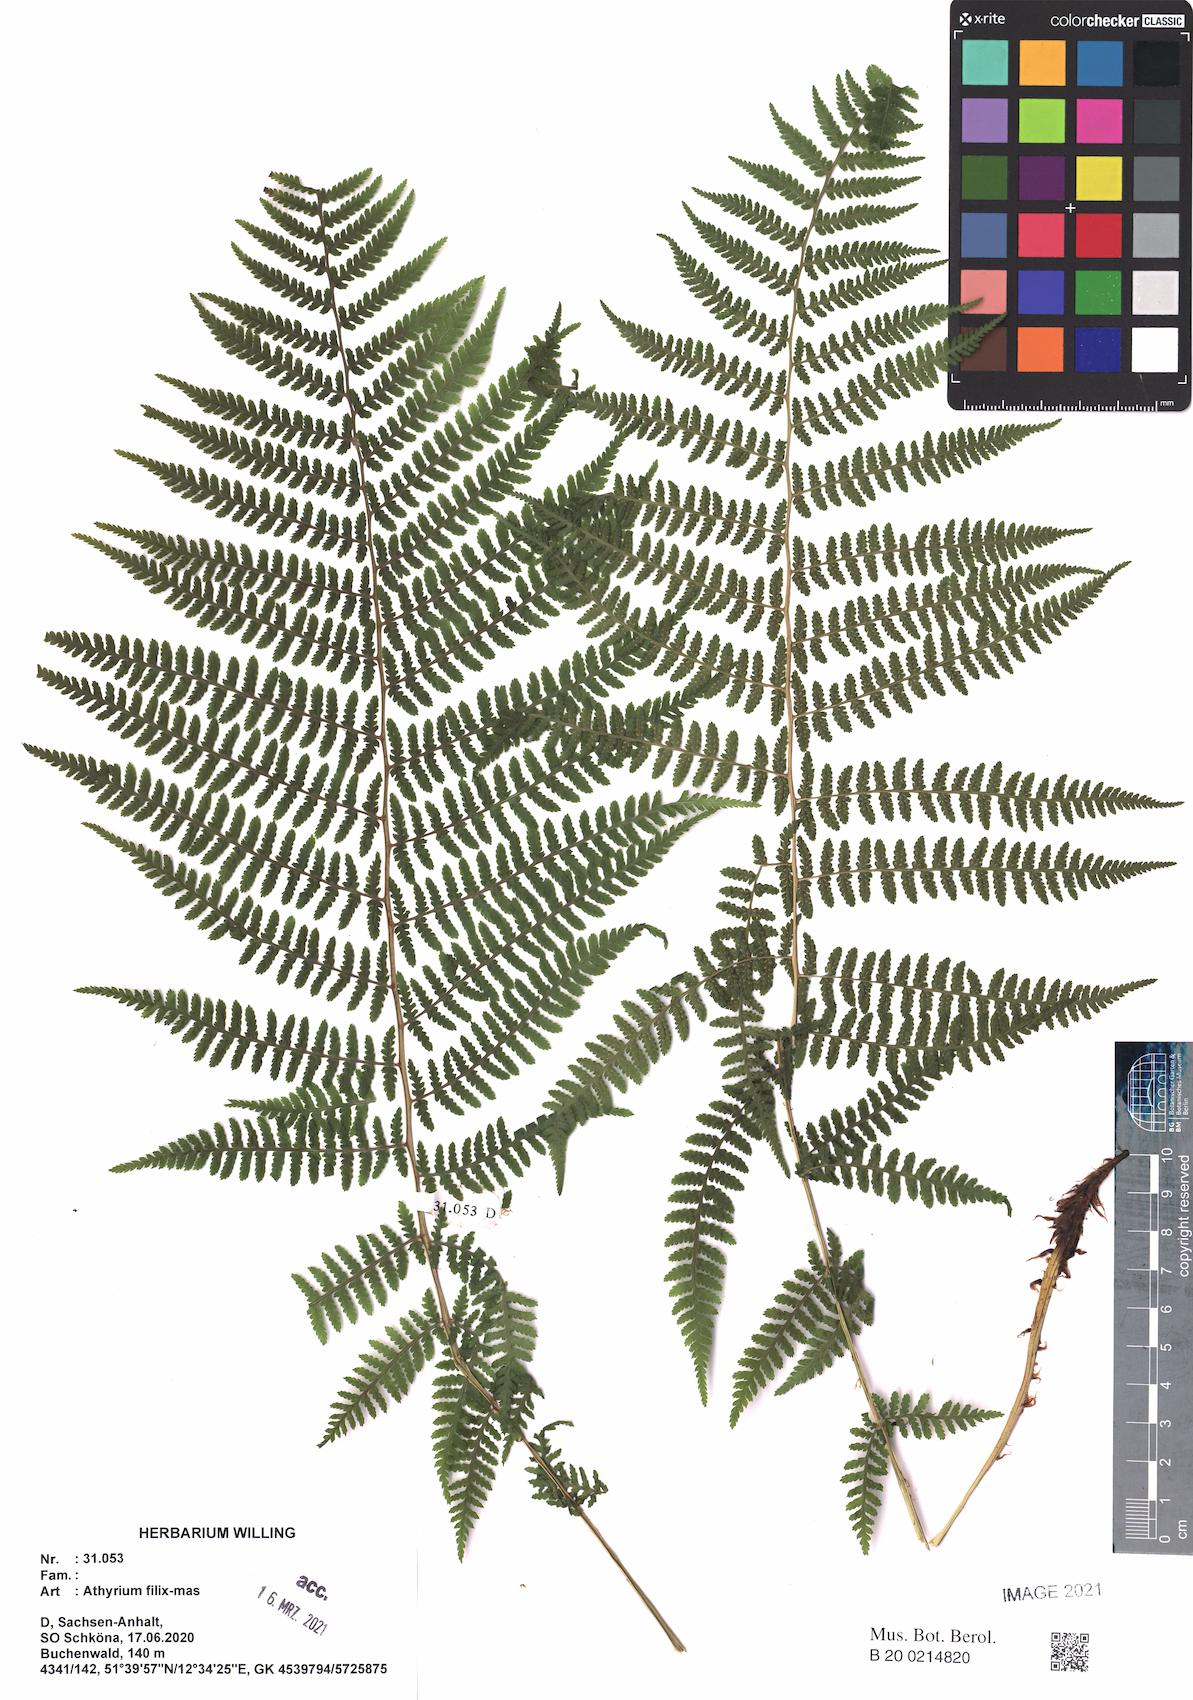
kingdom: Plantae
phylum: Tracheophyta
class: Polypodiopsida
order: Polypodiales
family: Athyriaceae
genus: Athyrium
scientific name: Athyrium filix-femina
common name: Lady fern
